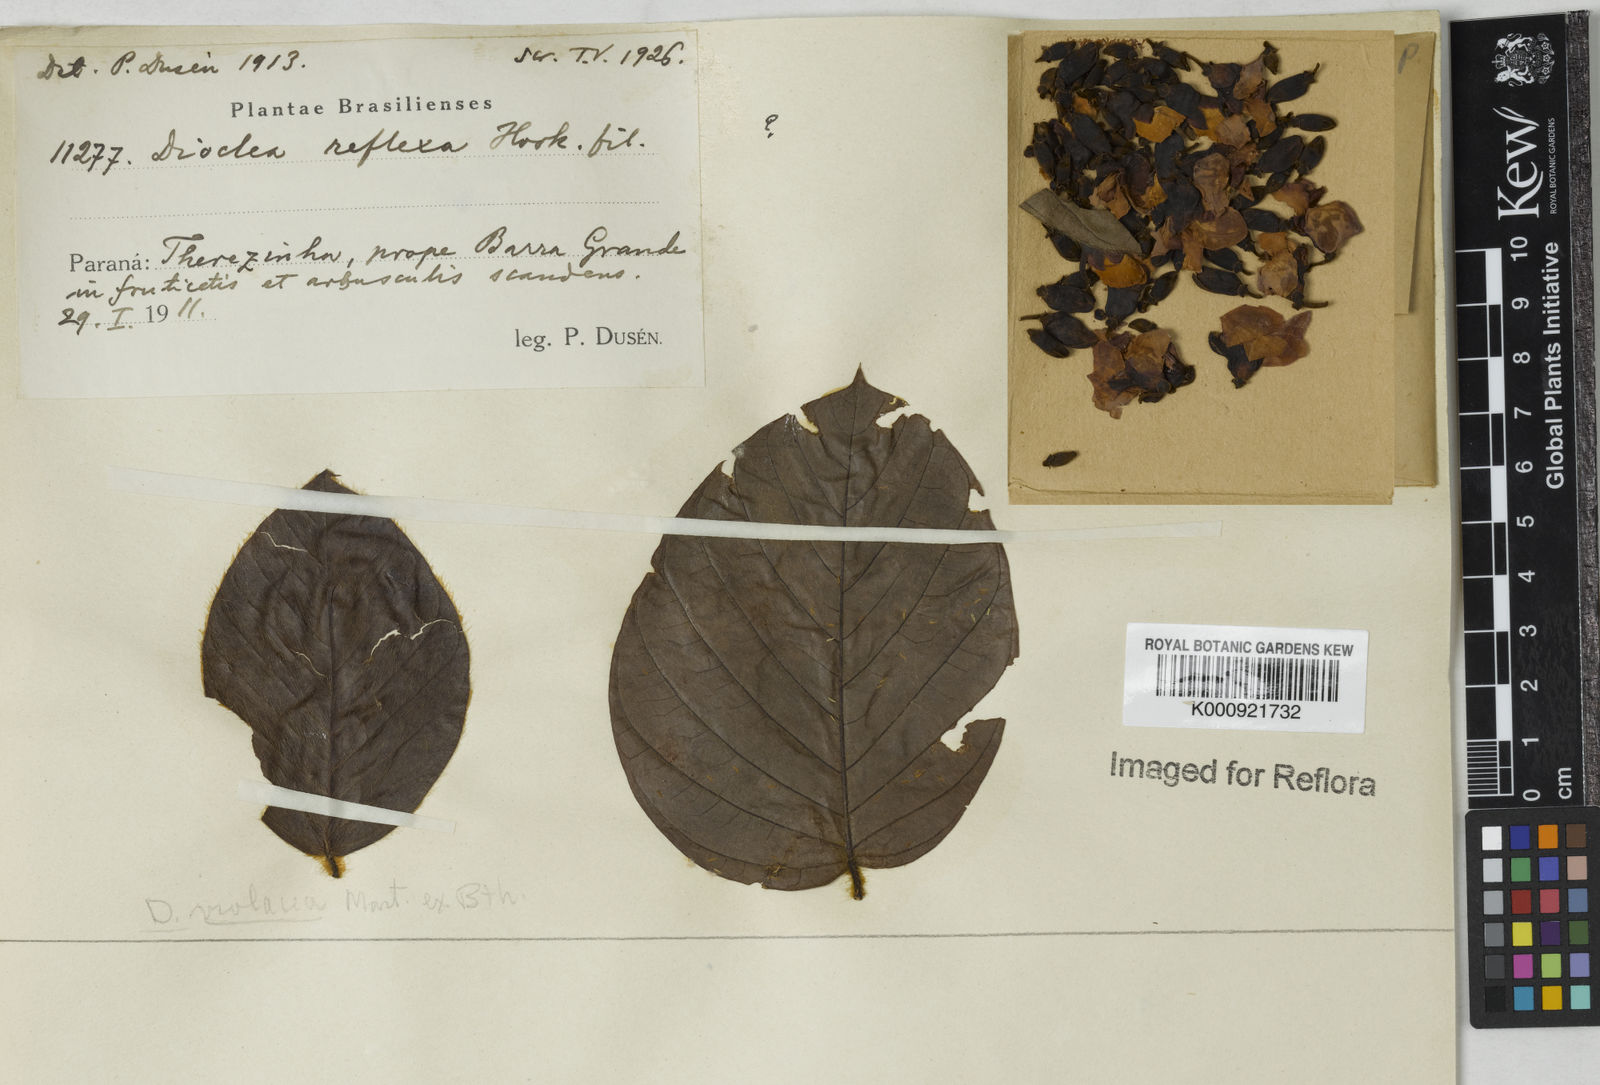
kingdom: Plantae
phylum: Tracheophyta
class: Magnoliopsida
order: Fabales
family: Fabaceae
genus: Macropsychanthus
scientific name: Macropsychanthus sclerocarpus
